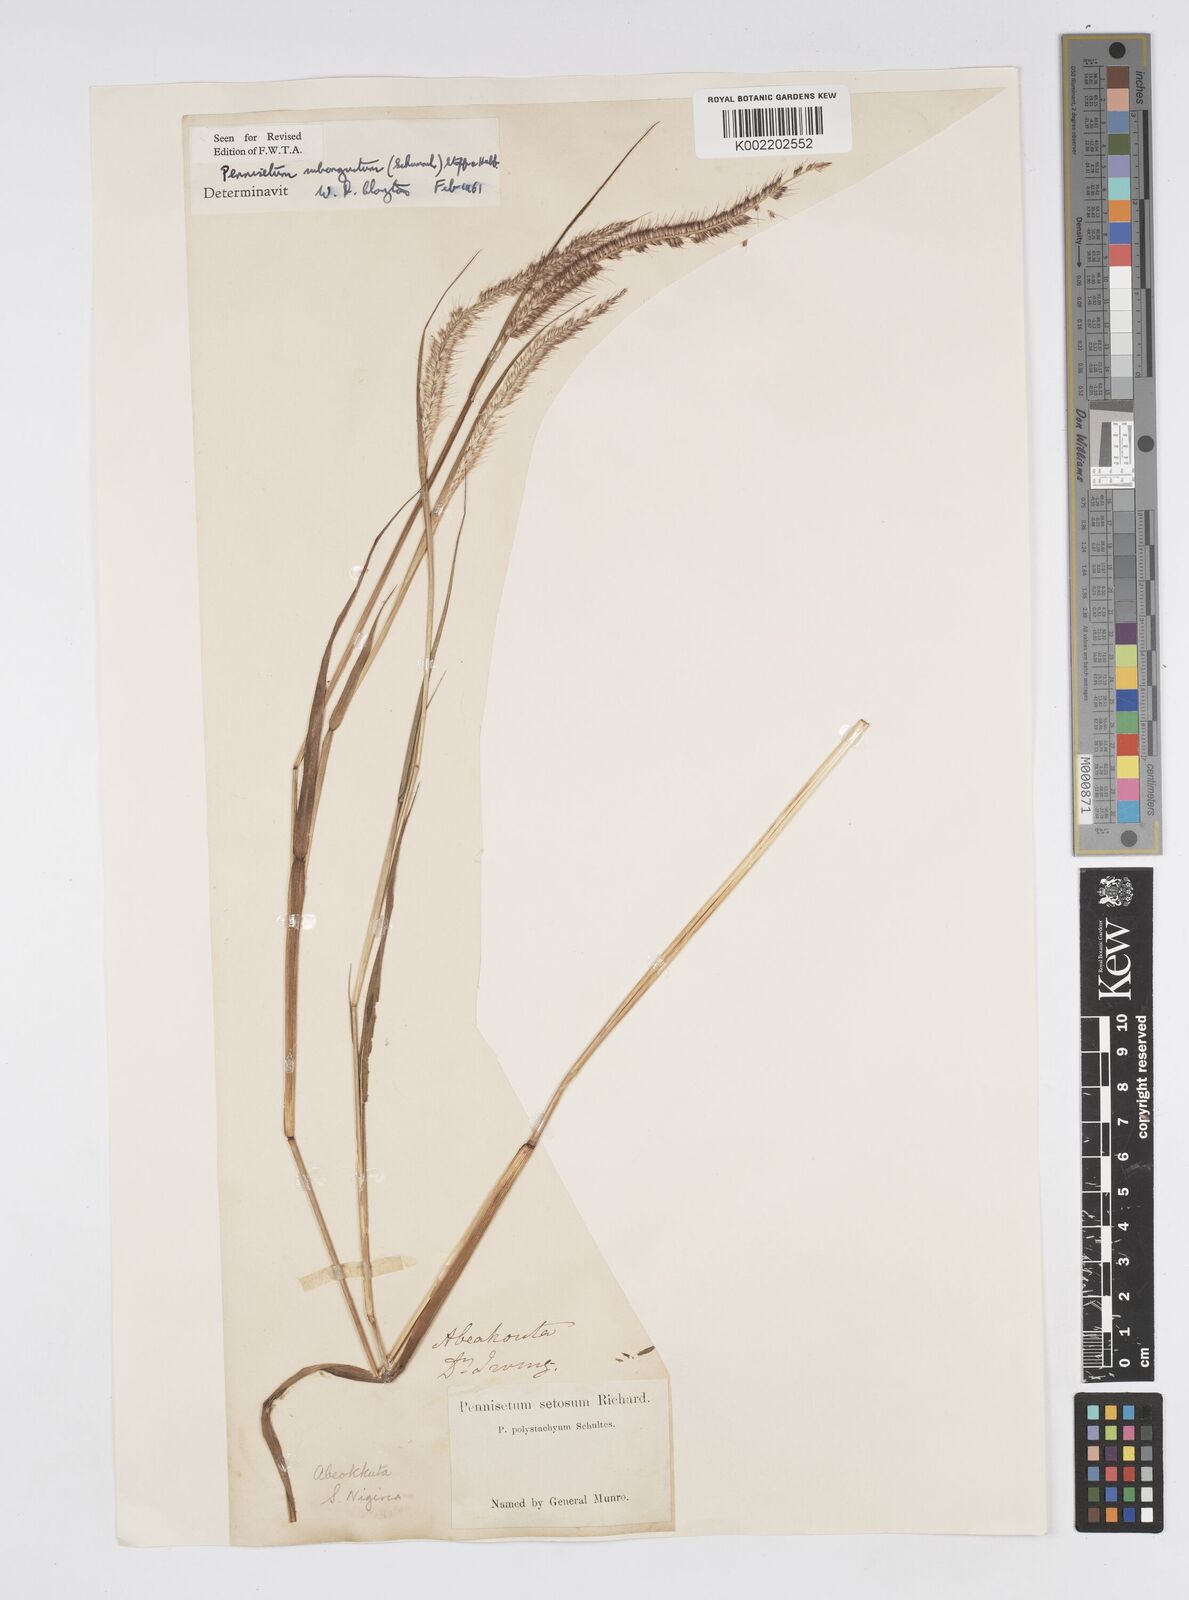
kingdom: Plantae
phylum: Tracheophyta
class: Liliopsida
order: Poales
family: Poaceae
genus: Setaria
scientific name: Setaria parviflora
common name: Knotroot bristle-grass
